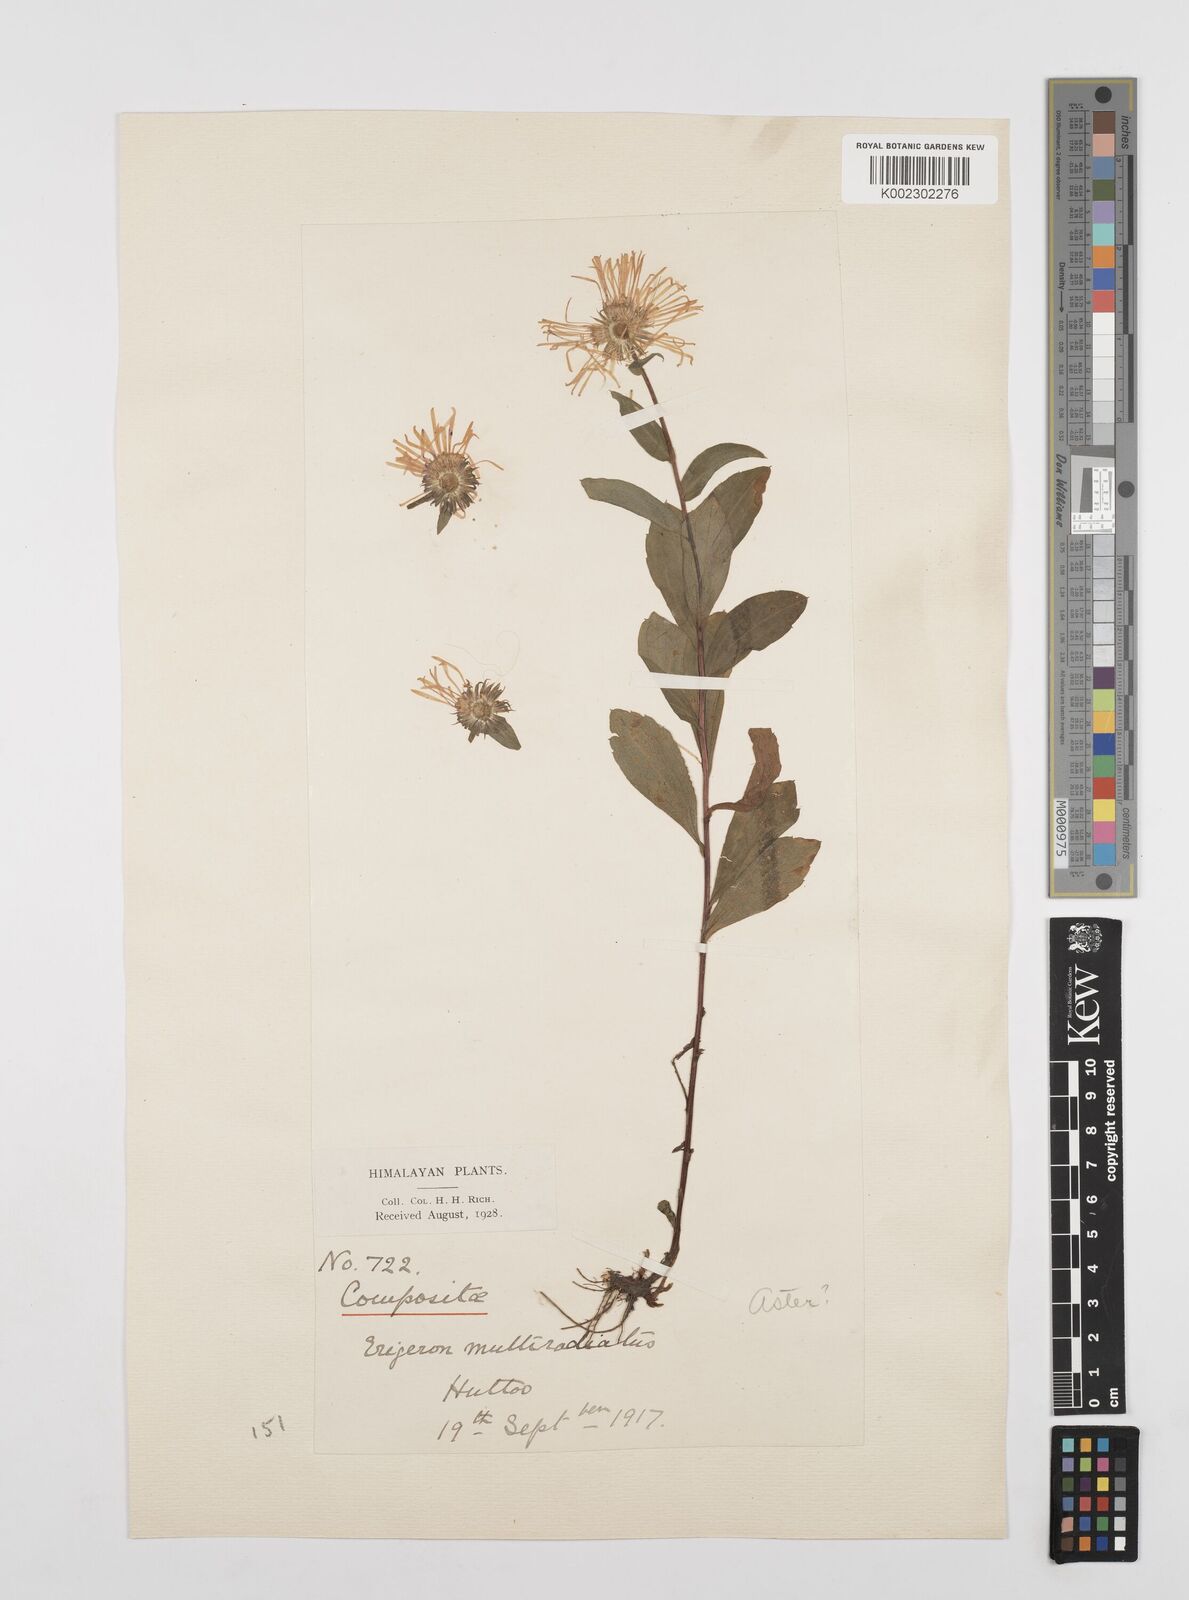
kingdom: Plantae
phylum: Tracheophyta
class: Magnoliopsida
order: Asterales
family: Asteraceae
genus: Erigeron
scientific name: Erigeron multiradiatus
